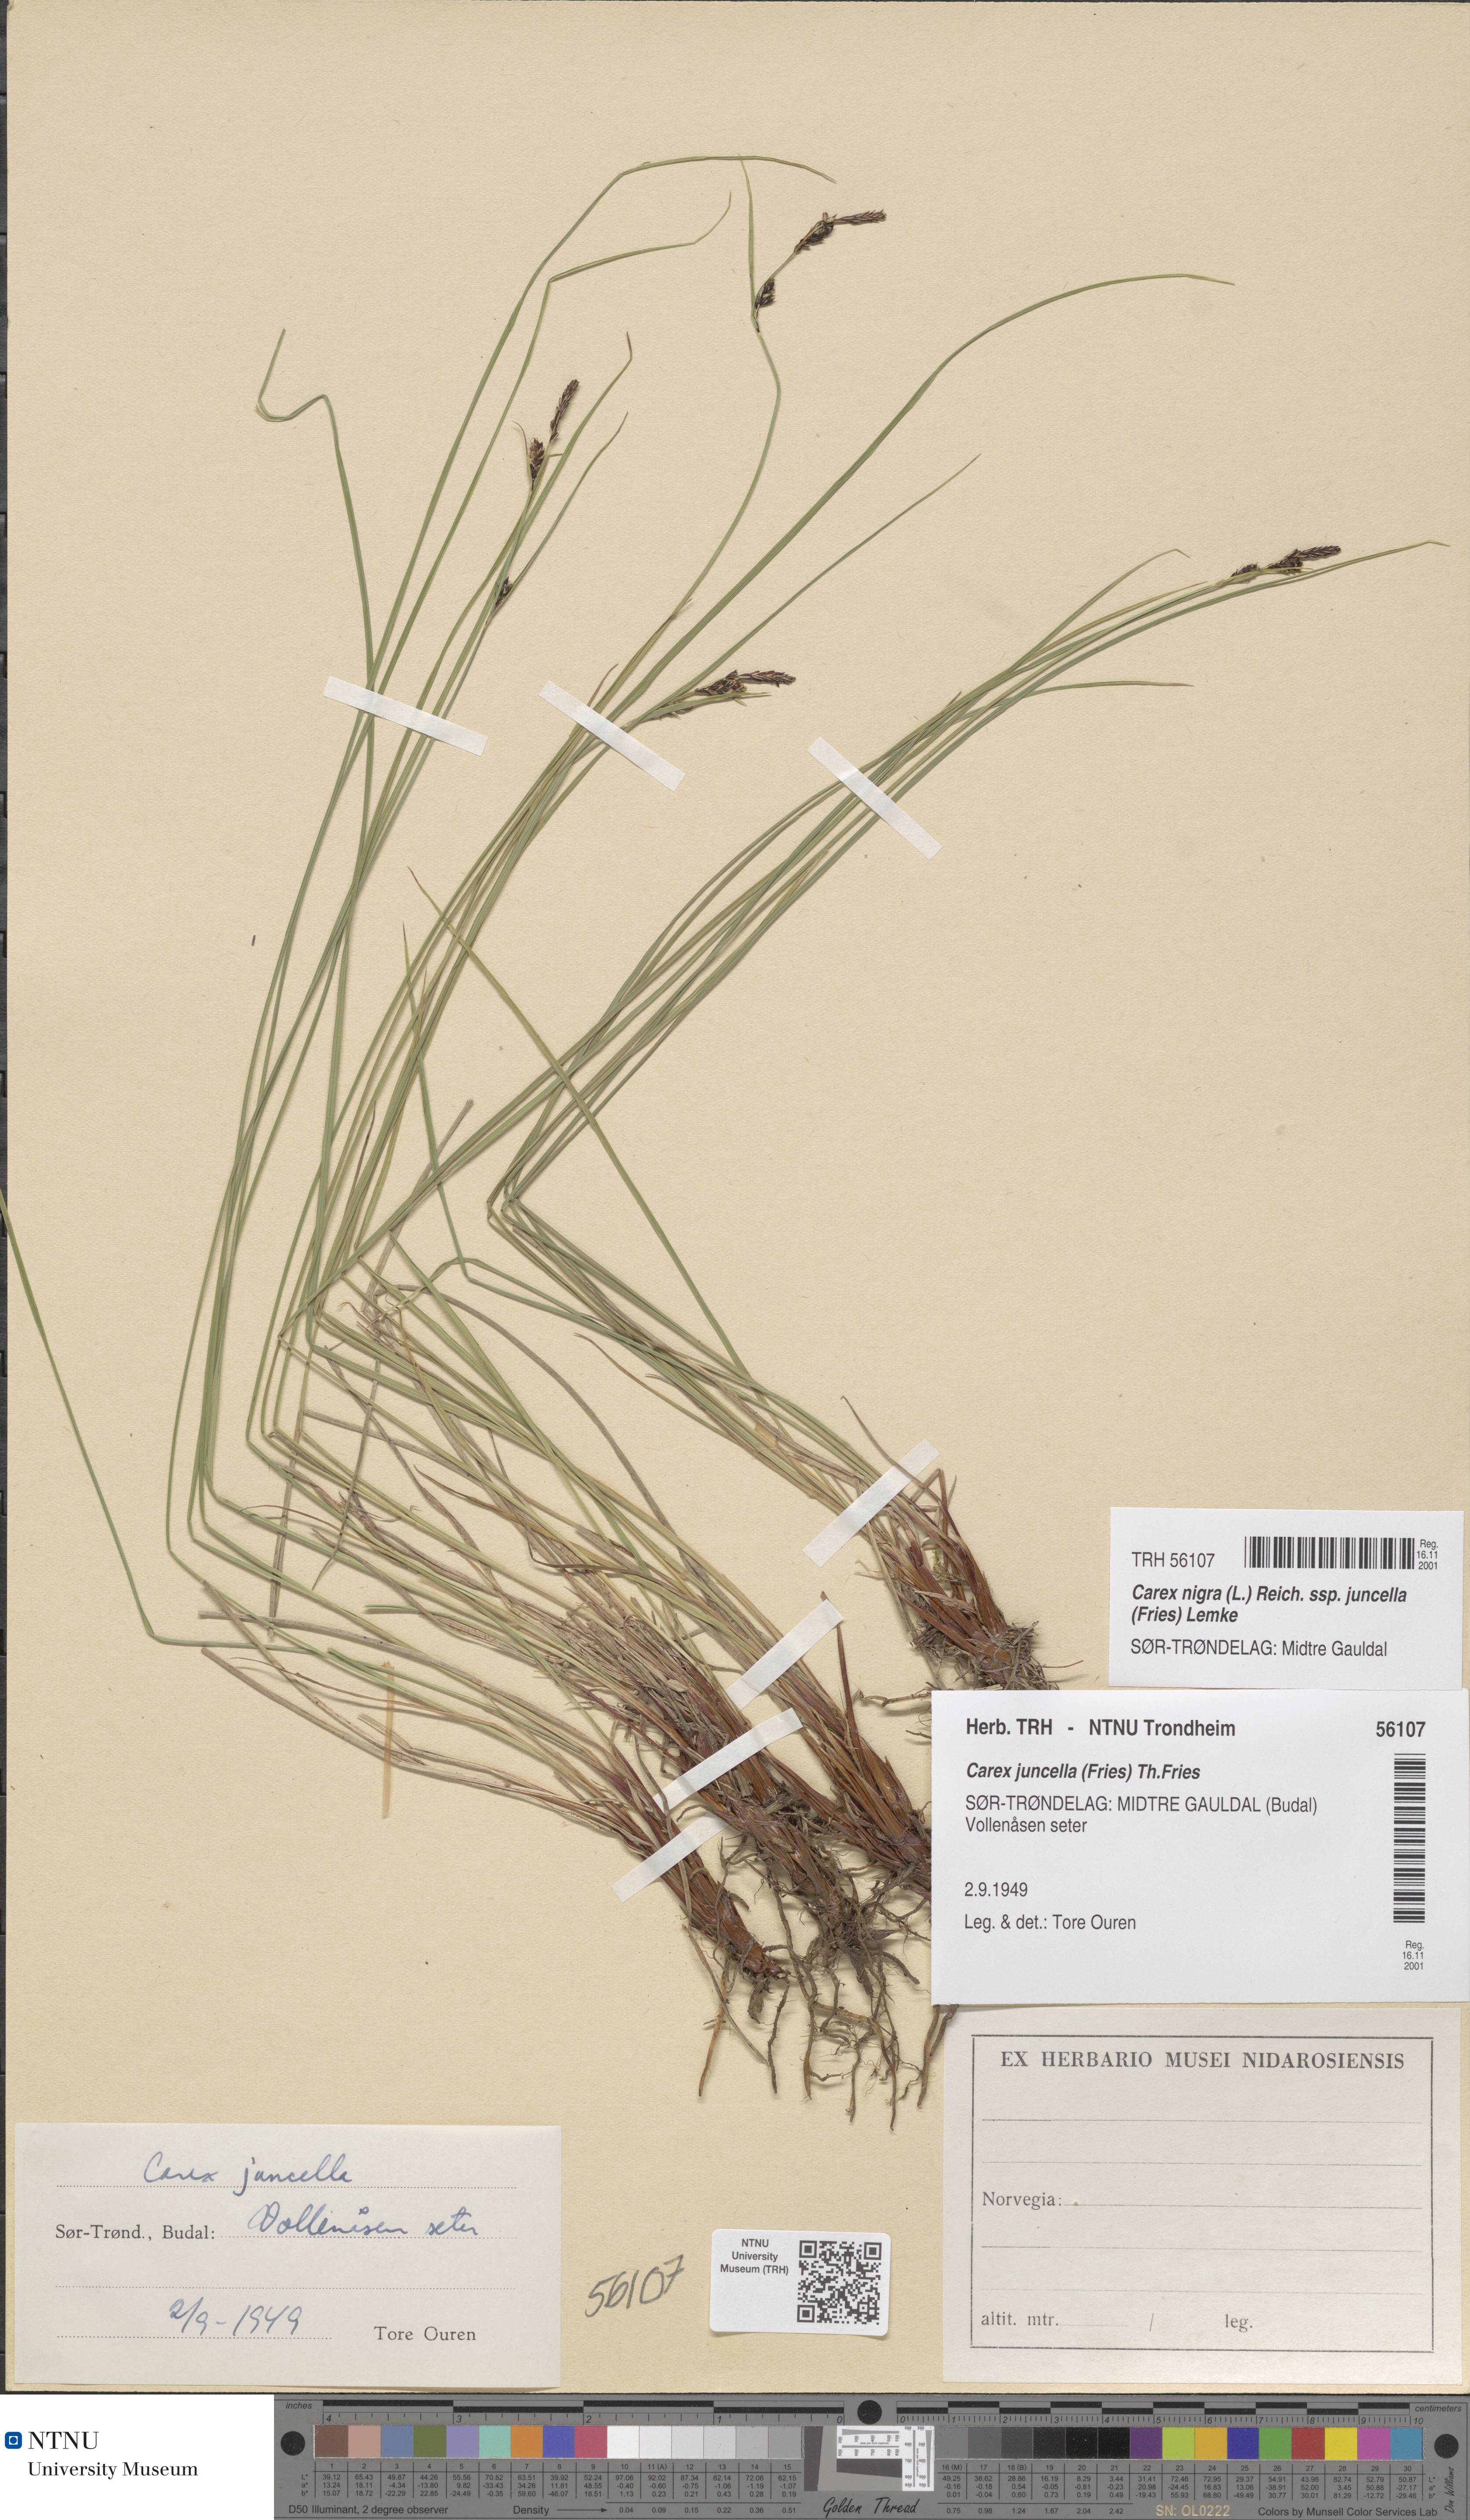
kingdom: Plantae
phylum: Tracheophyta
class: Liliopsida
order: Poales
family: Cyperaceae
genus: Carex
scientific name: Carex nigra
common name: Common sedge
